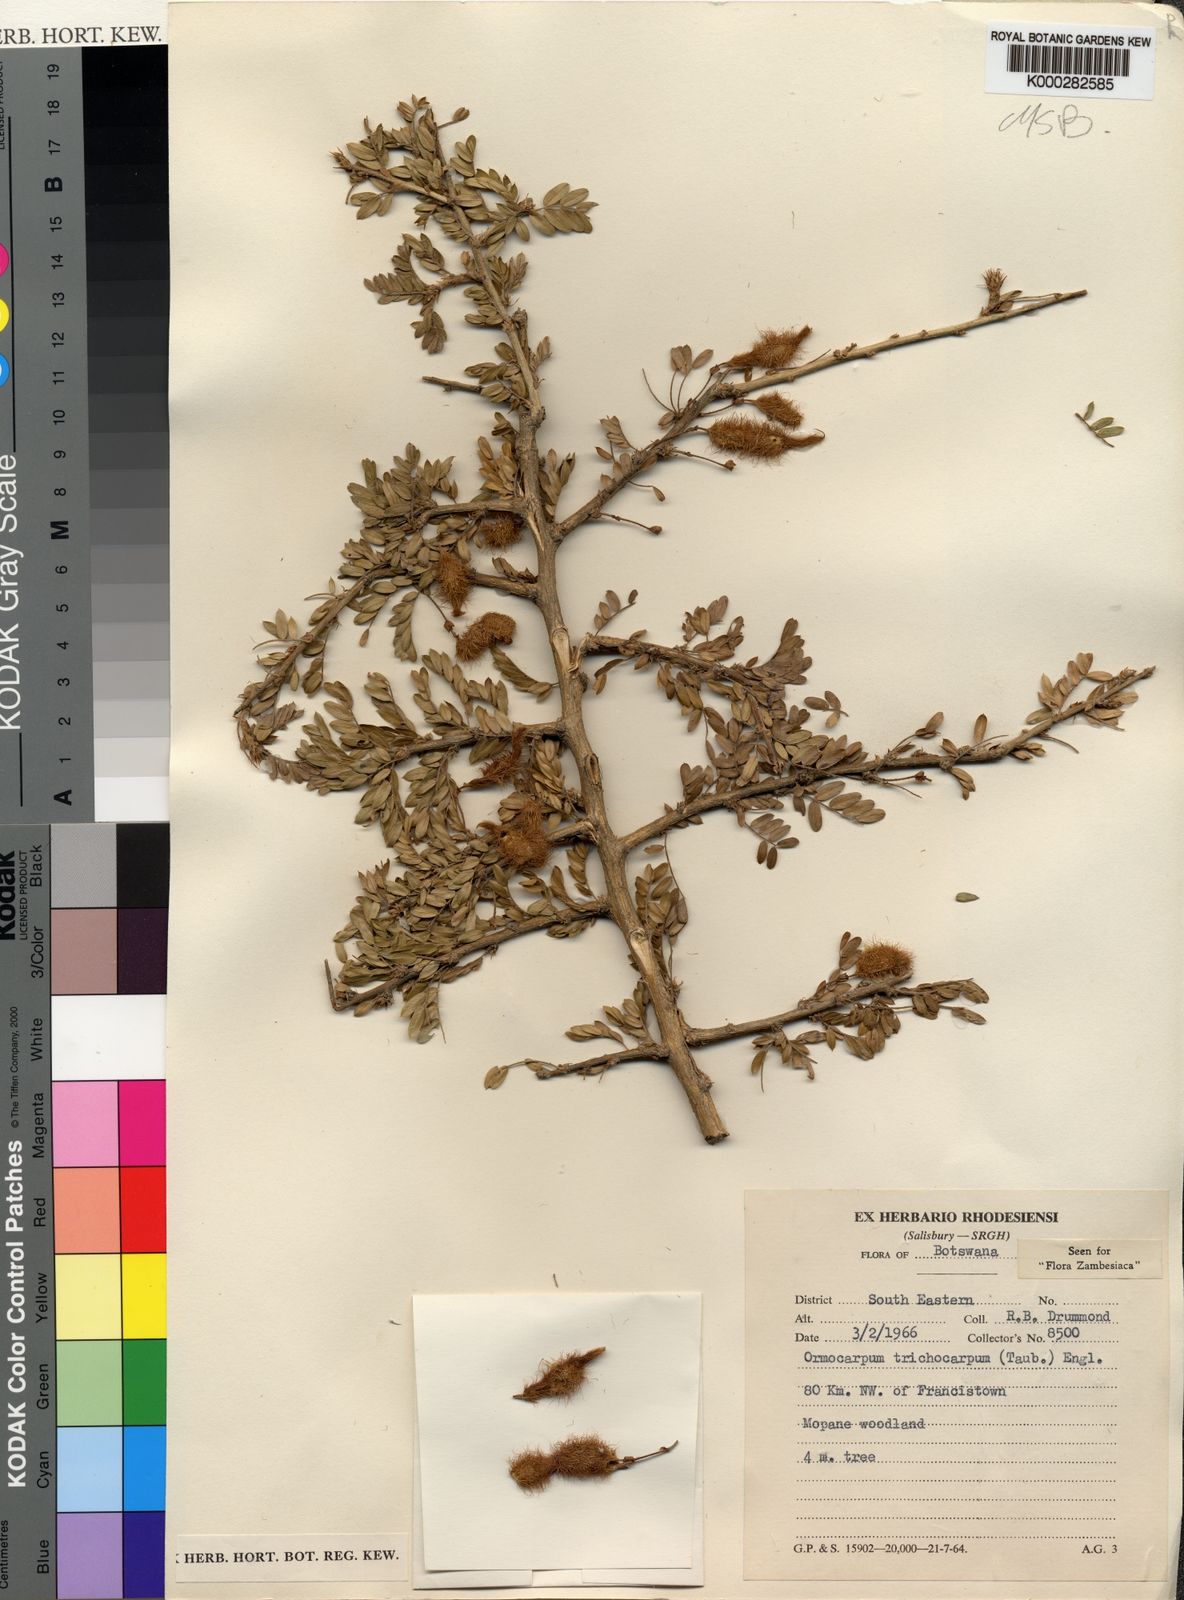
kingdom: Plantae
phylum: Tracheophyta
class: Magnoliopsida
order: Fabales
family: Fabaceae
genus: Ormocarpum
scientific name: Ormocarpum trichocarpum
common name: Caterpillar bush
